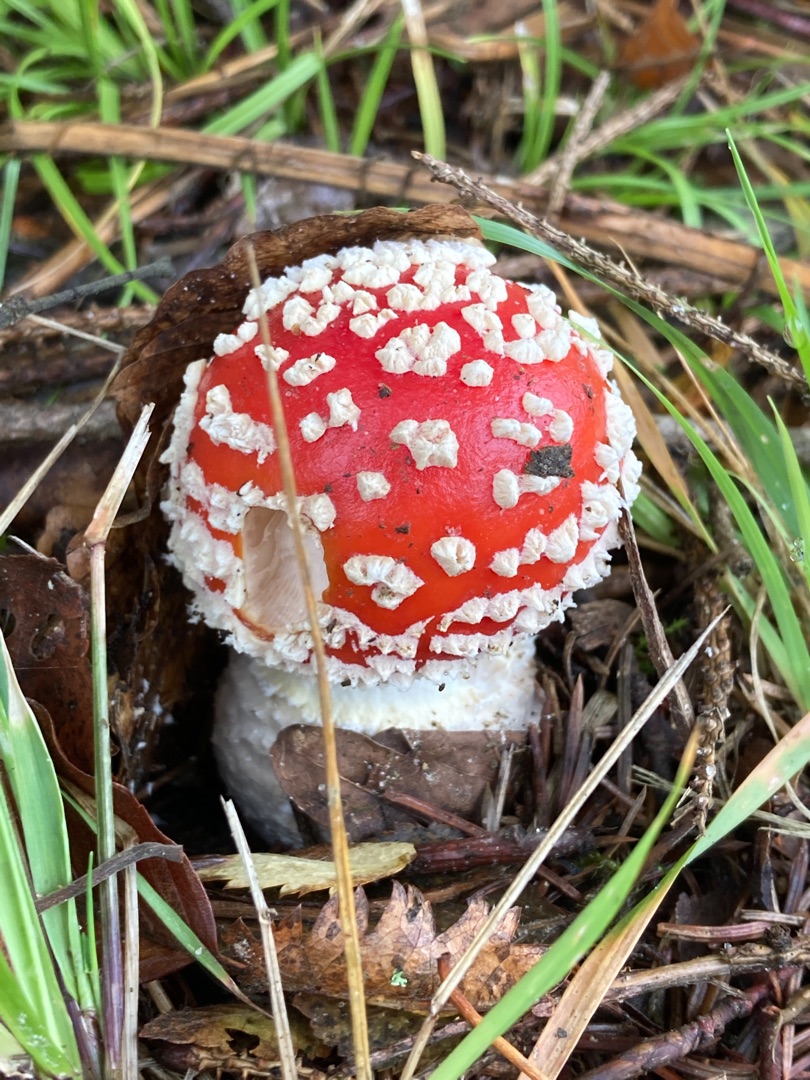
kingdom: Fungi
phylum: Basidiomycota
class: Agaricomycetes
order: Agaricales
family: Amanitaceae
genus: Amanita
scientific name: Amanita muscaria
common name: Rød fluesvamp
